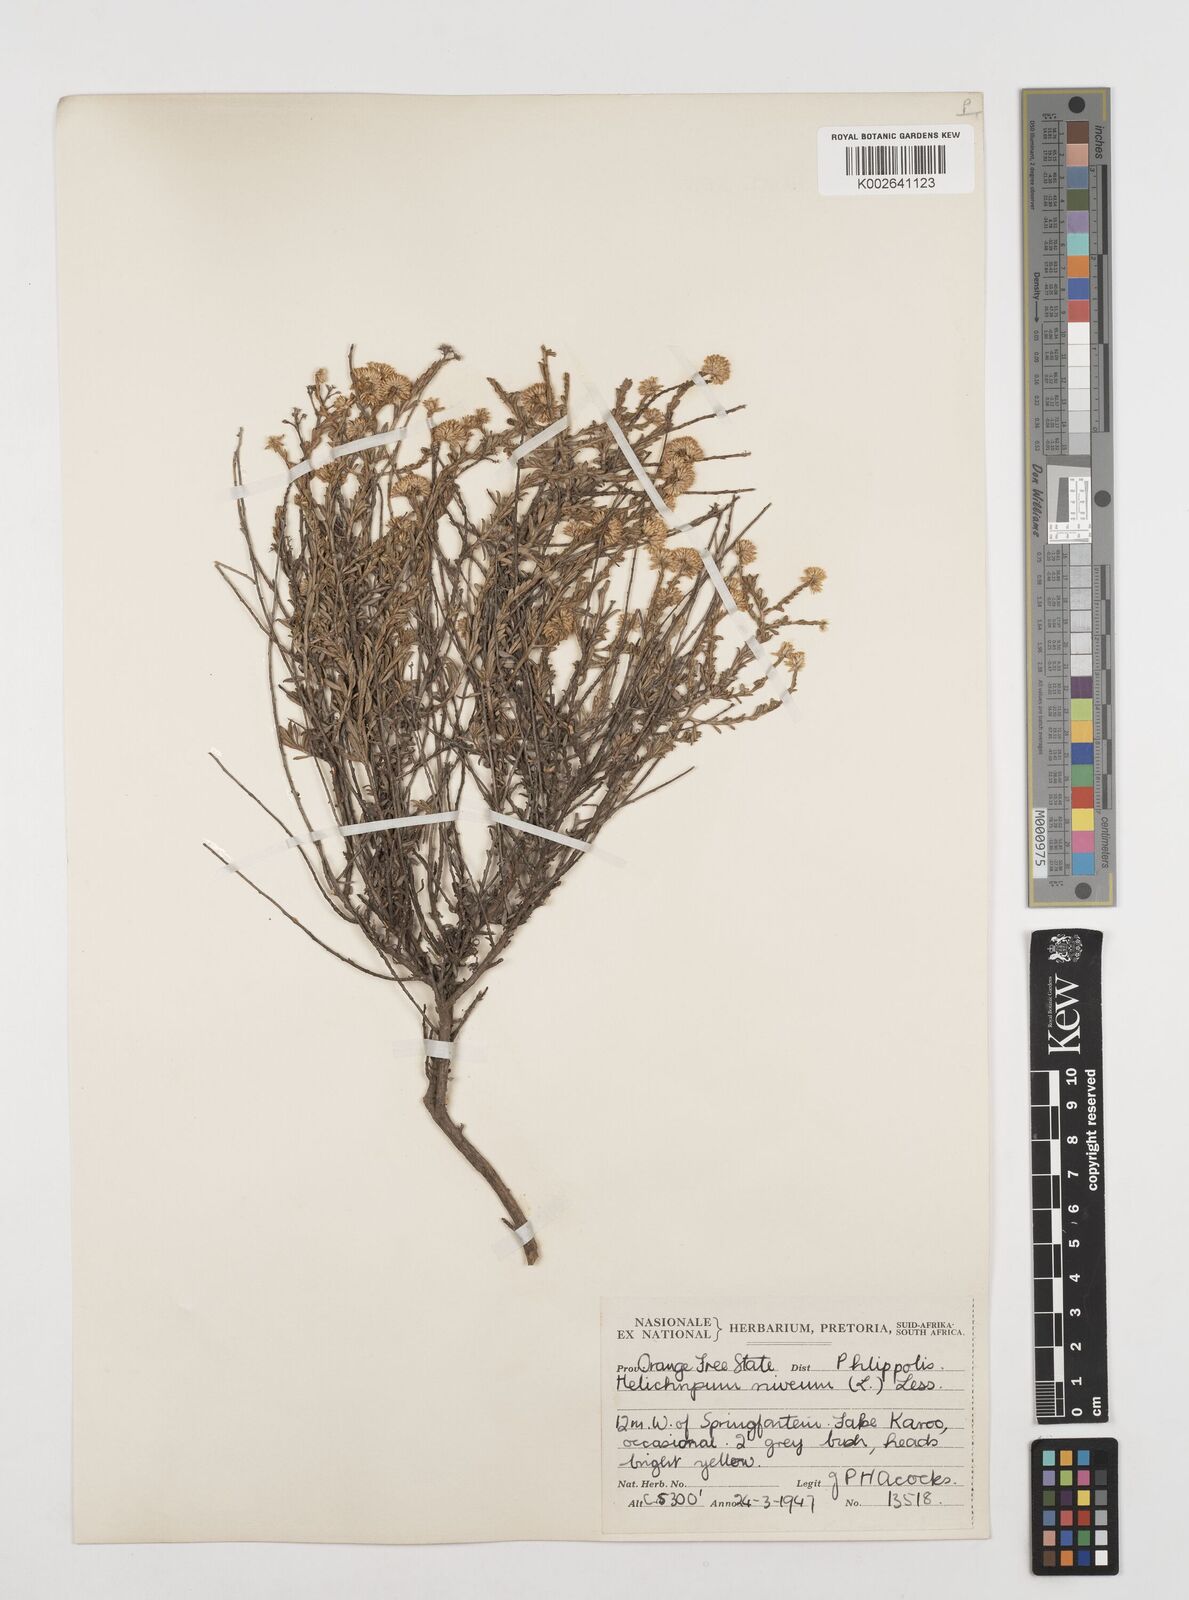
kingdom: Plantae
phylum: Tracheophyta
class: Magnoliopsida
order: Asterales
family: Asteraceae
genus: Helichrysum
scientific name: Helichrysum rutilans
